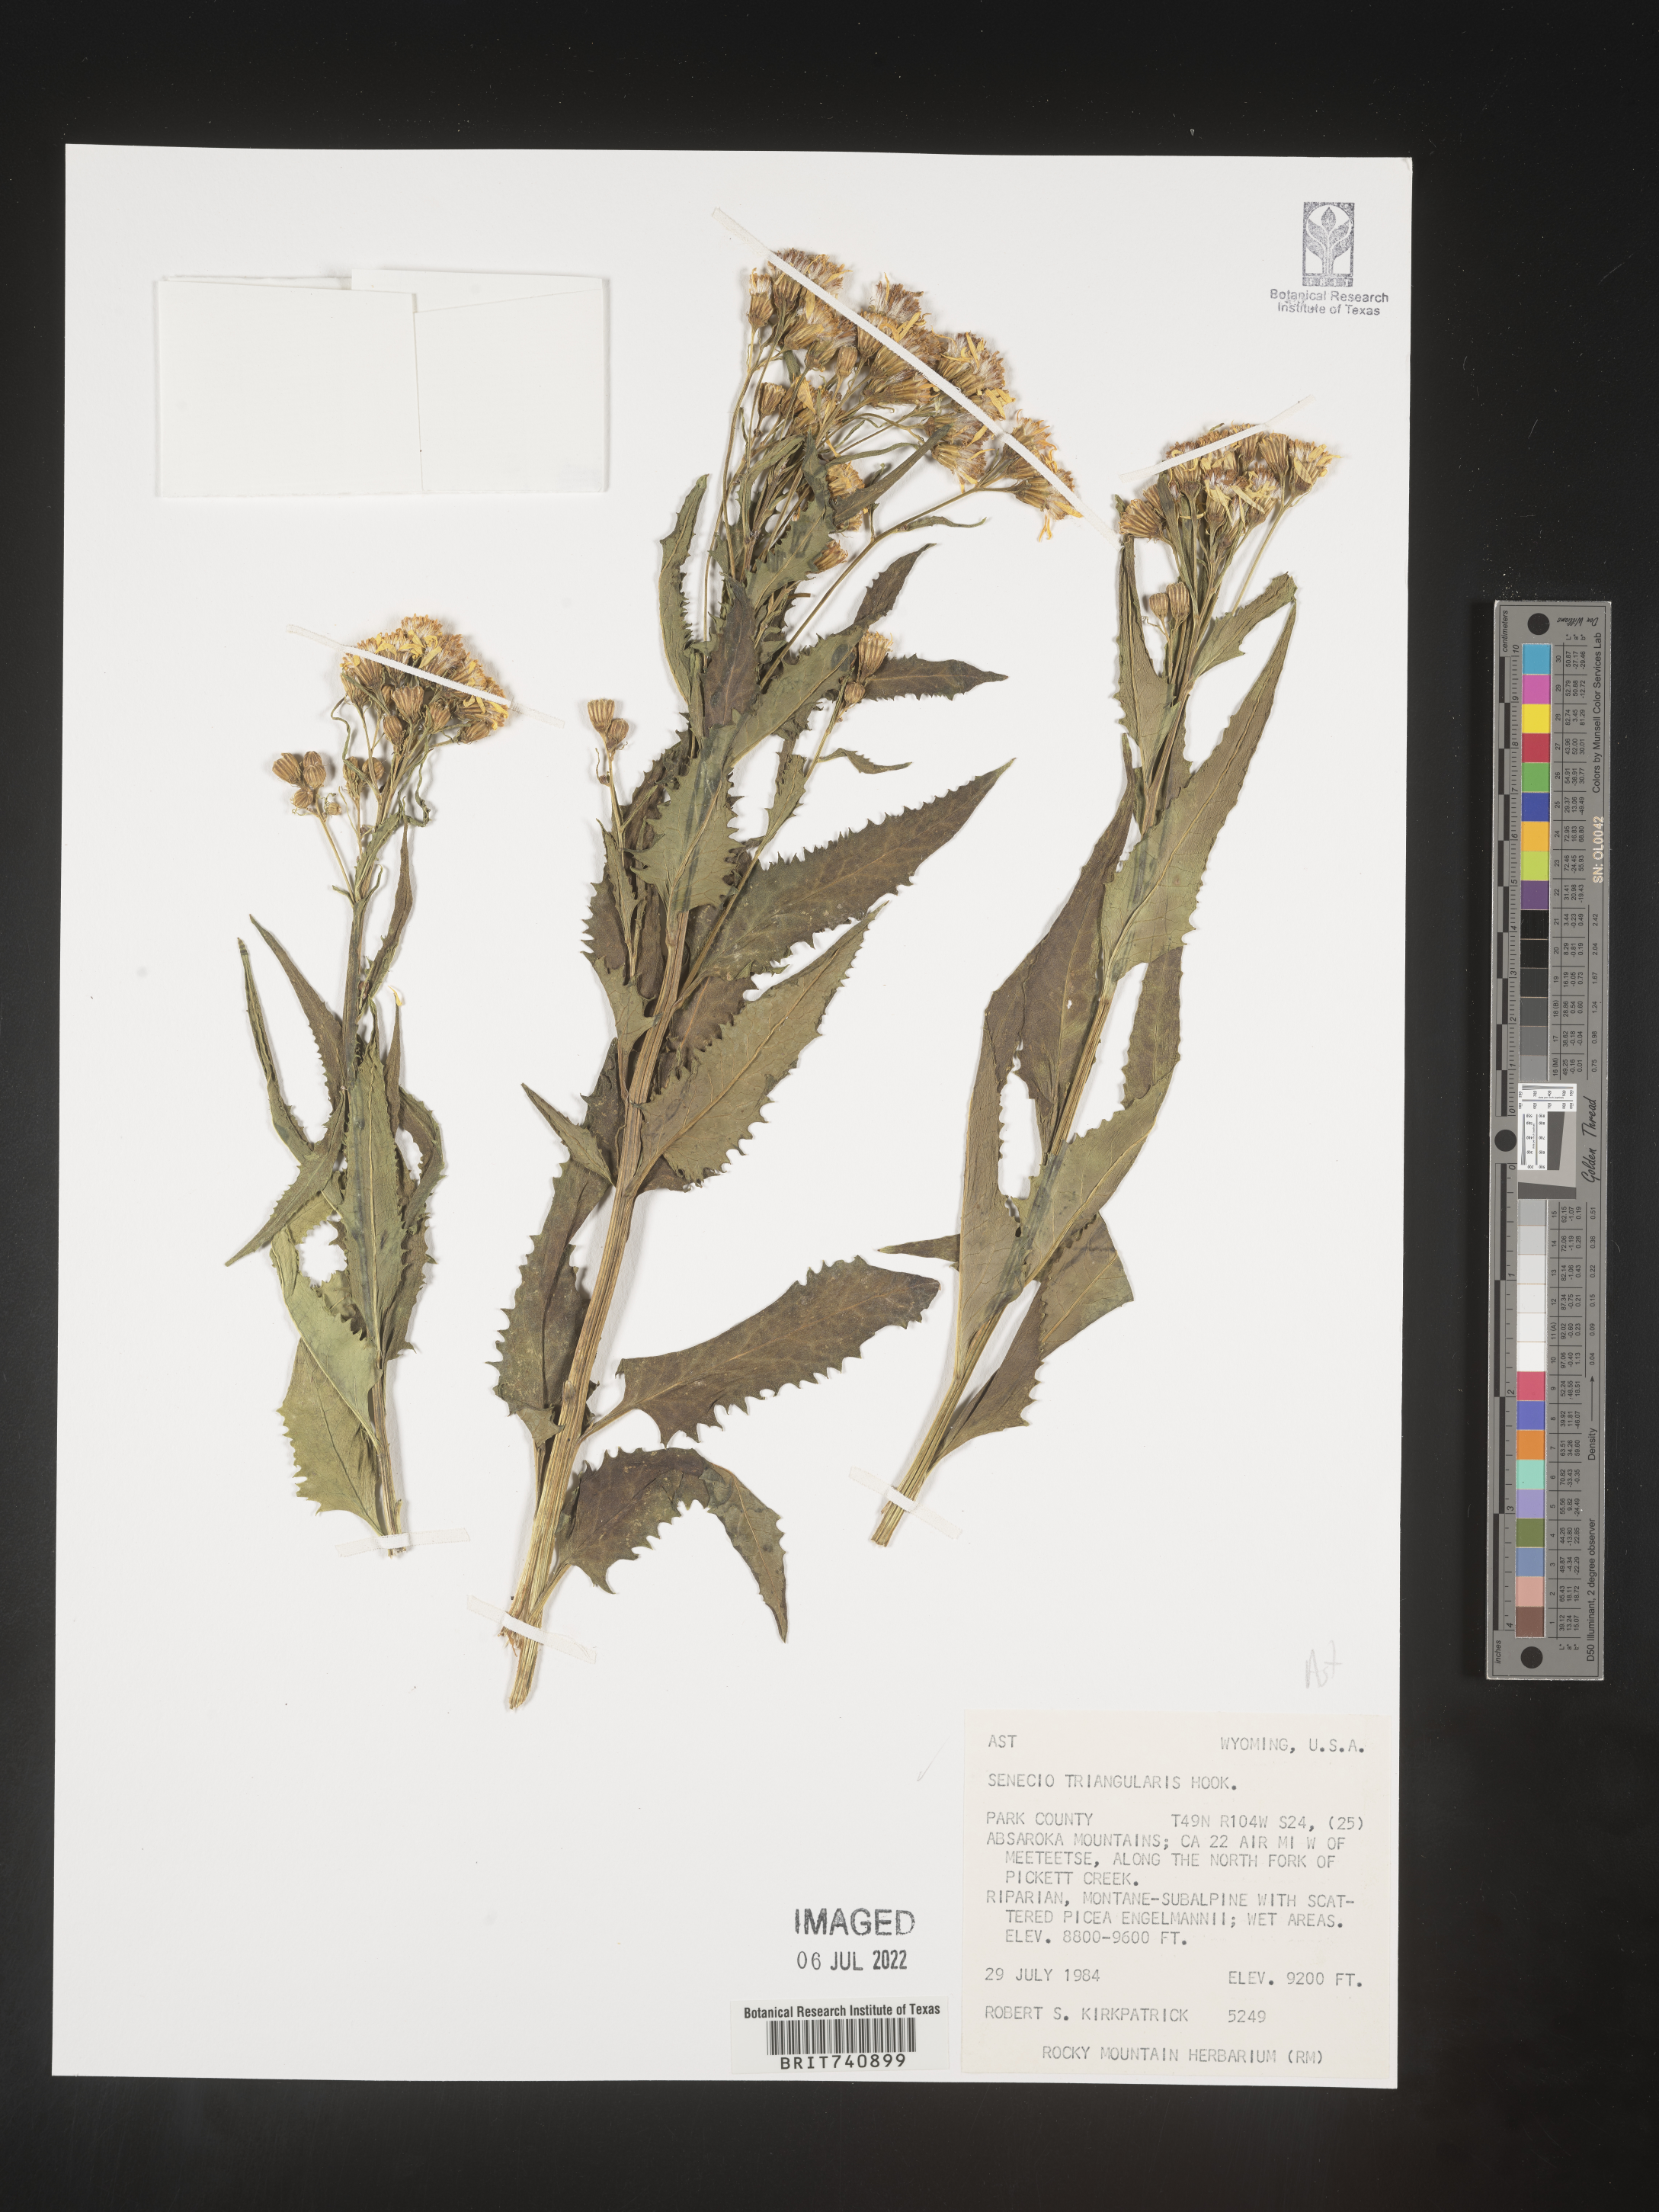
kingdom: Plantae
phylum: Tracheophyta
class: Magnoliopsida
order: Asterales
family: Asteraceae
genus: Senecio
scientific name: Senecio triangularis
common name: Arrowleaf butterweed
